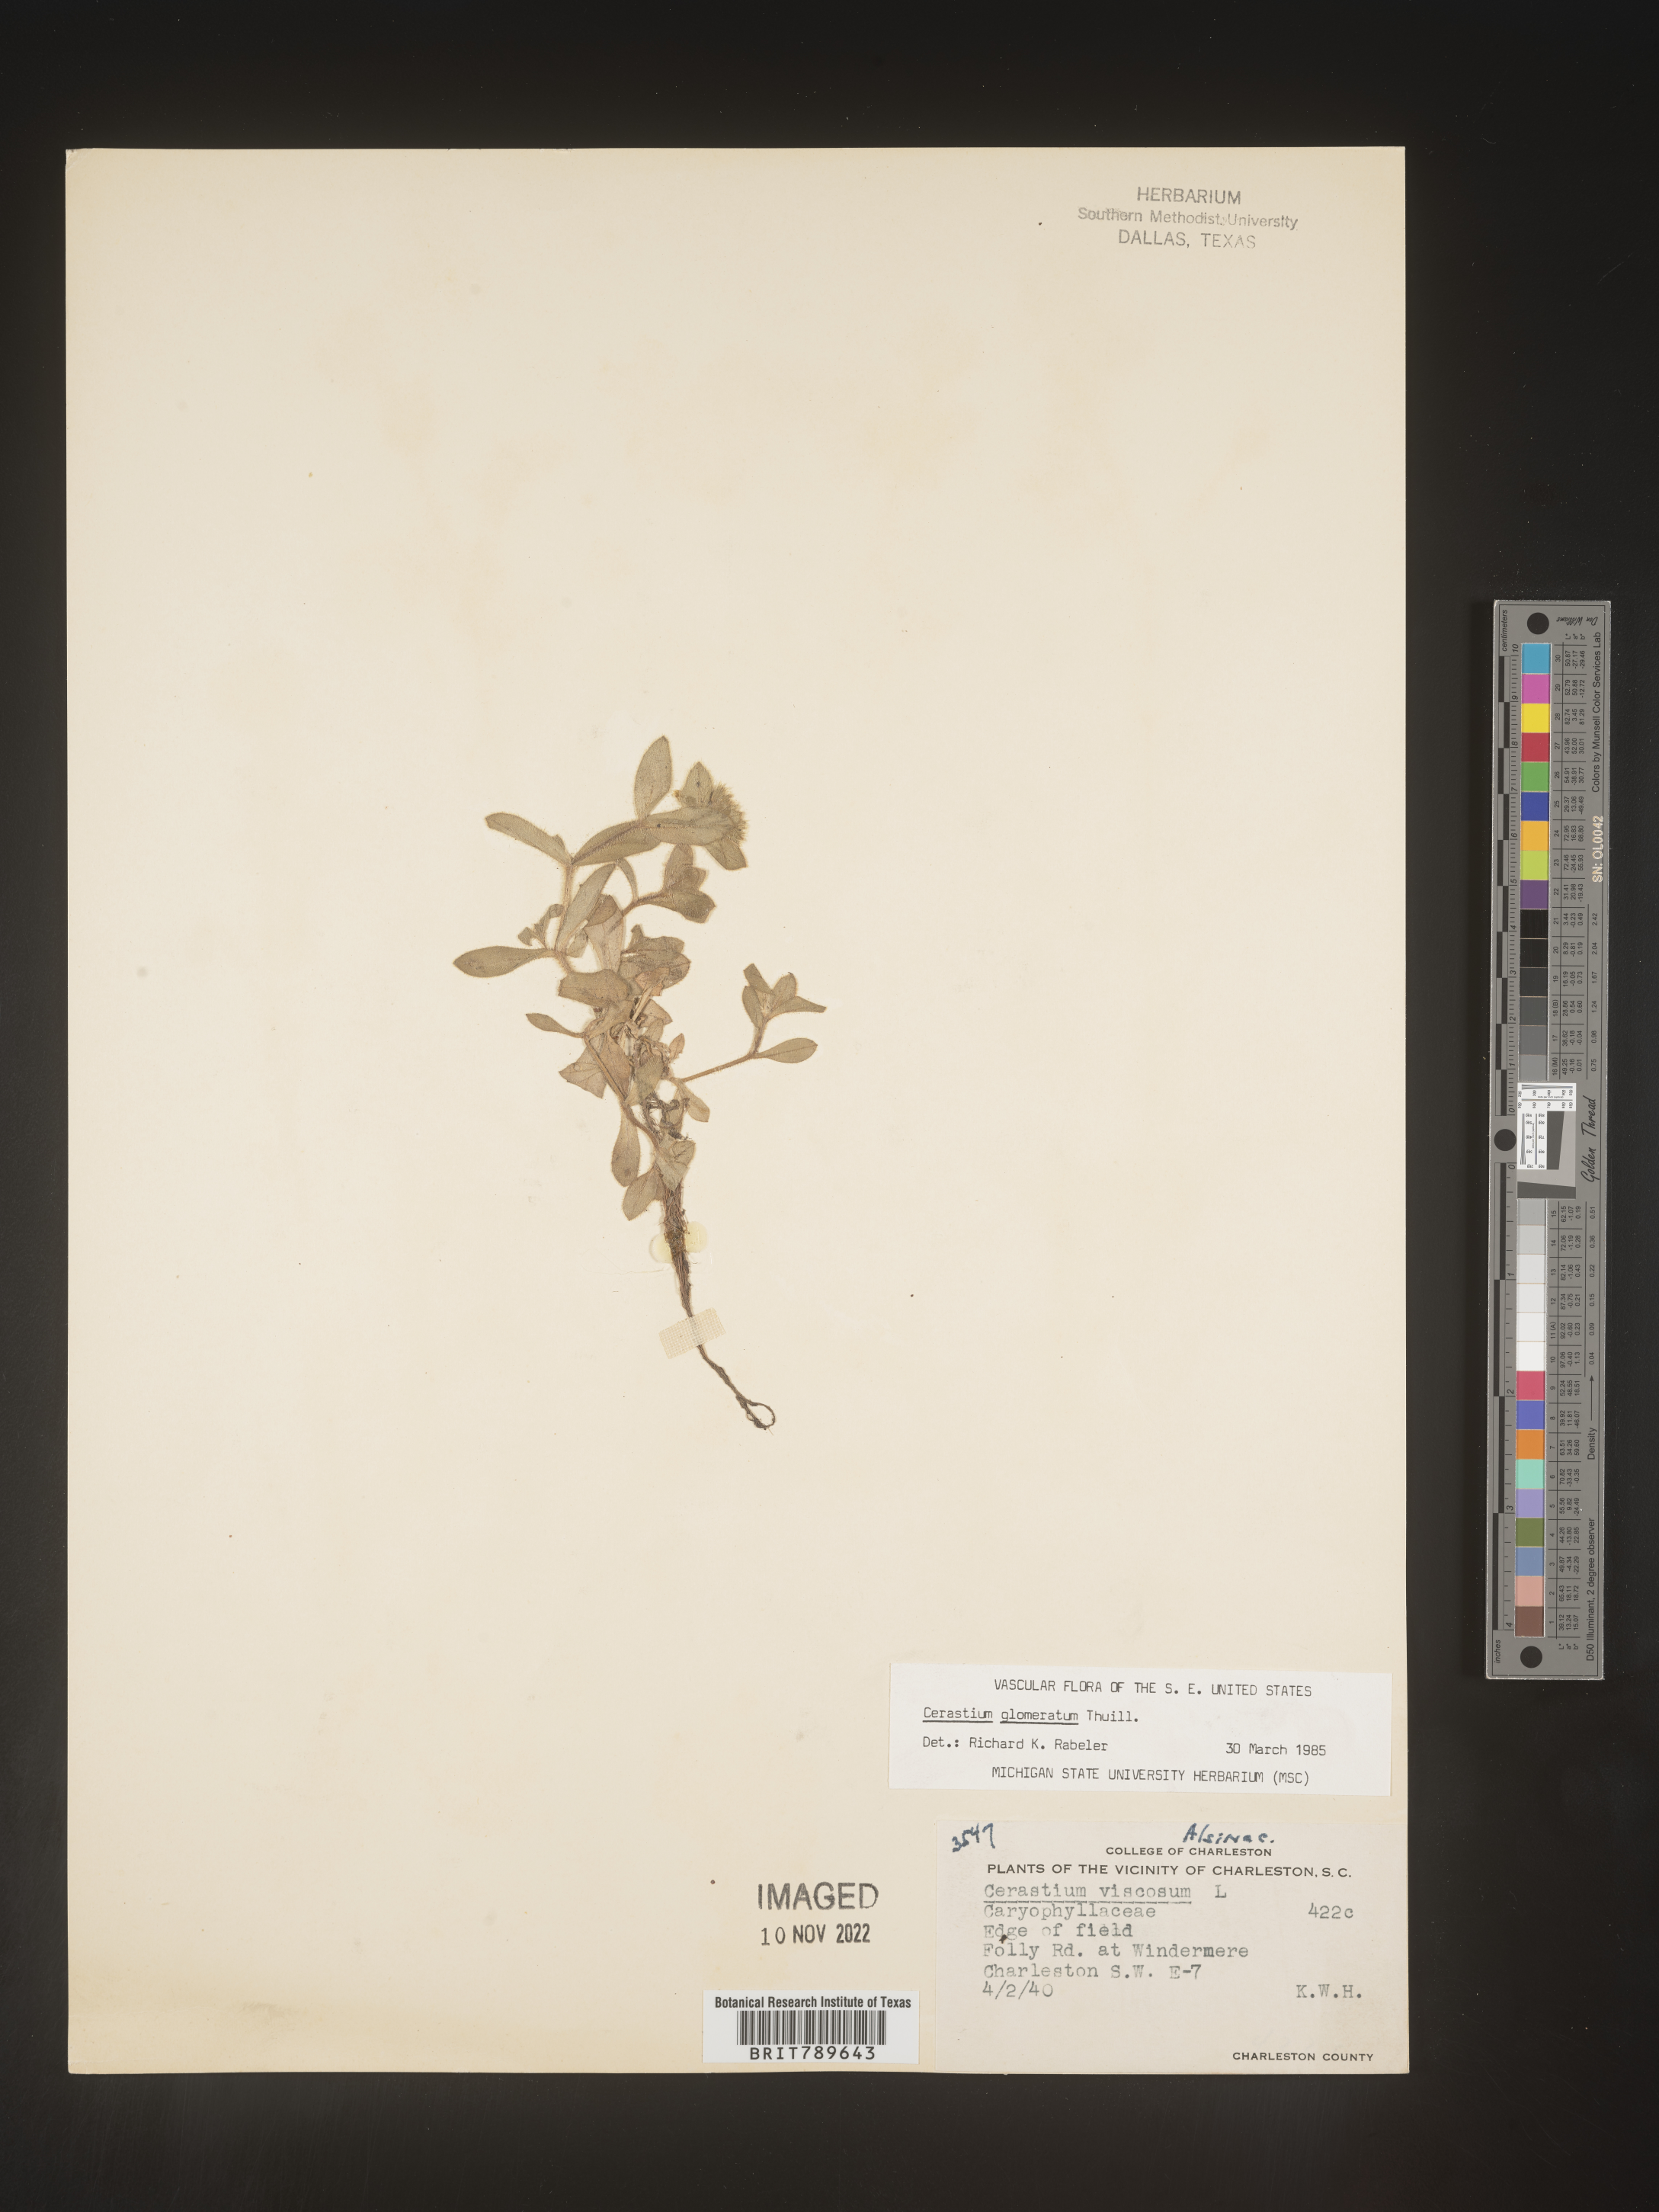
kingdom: Plantae
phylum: Tracheophyta
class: Magnoliopsida
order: Caryophyllales
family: Caryophyllaceae
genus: Cerastium
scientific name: Cerastium glomeratum
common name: Sticky chickweed
